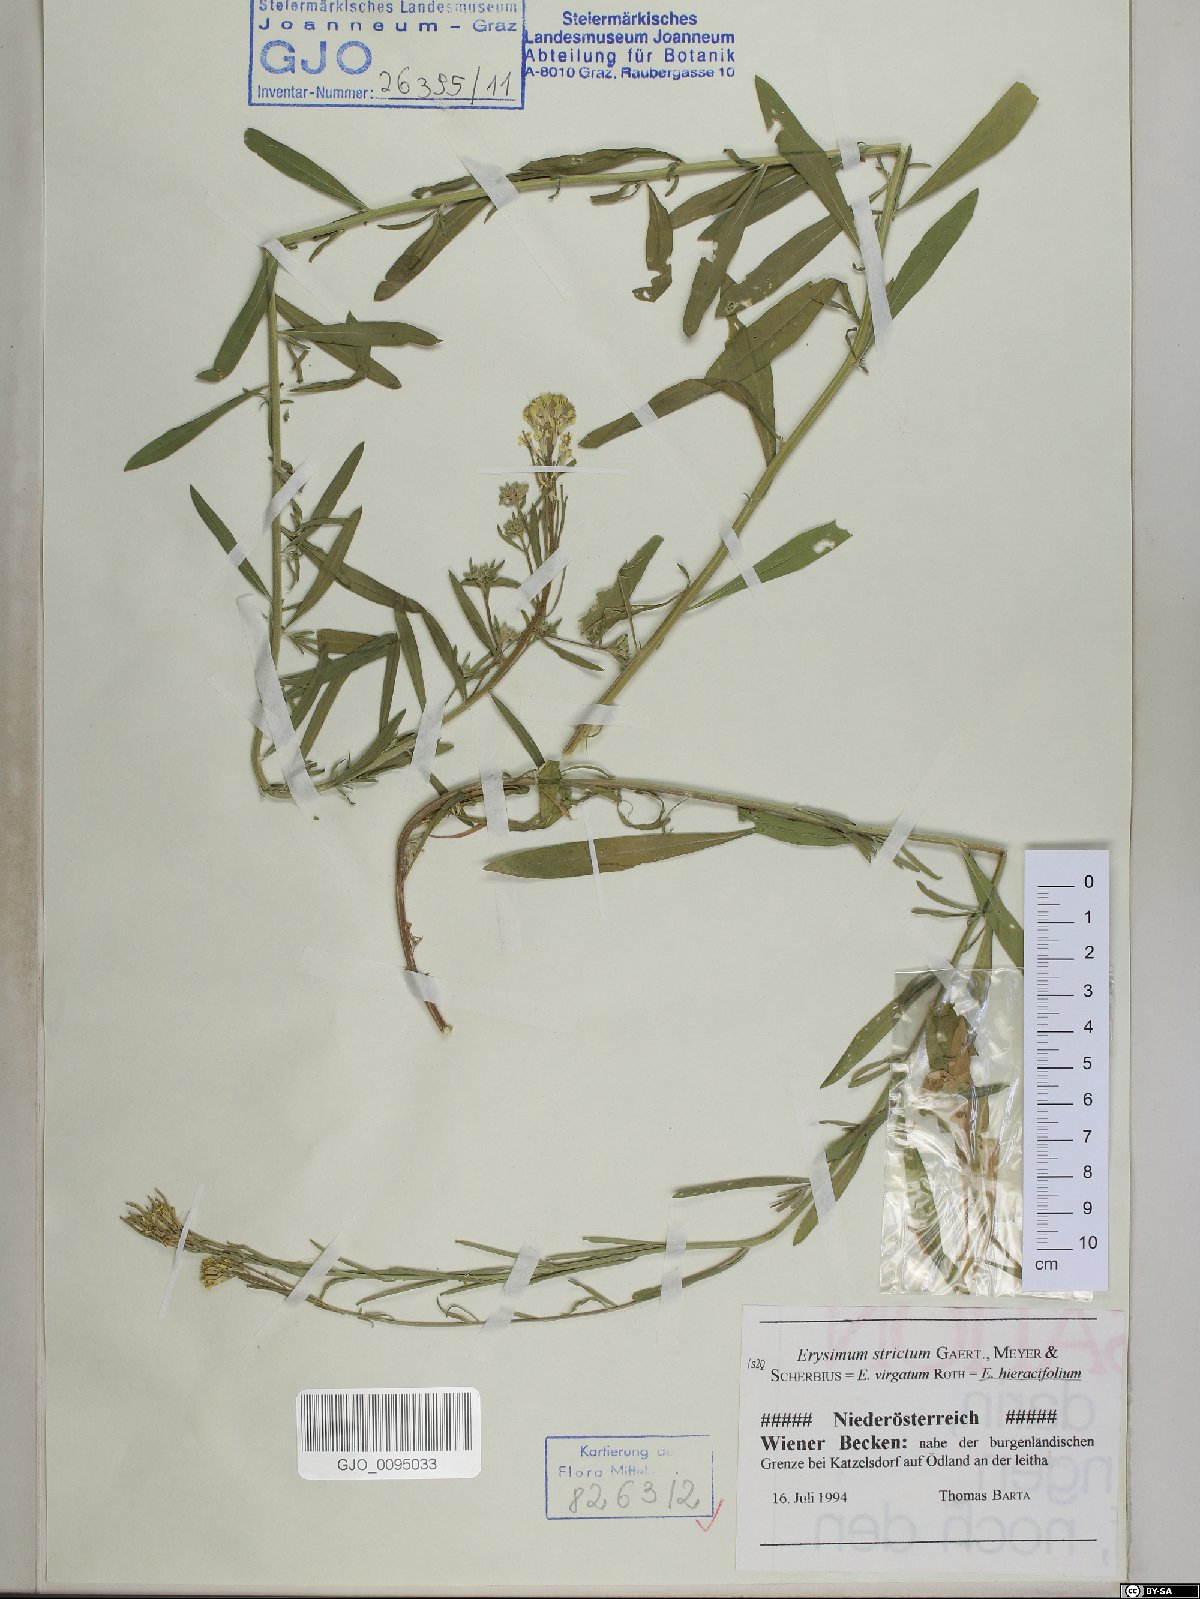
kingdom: Plantae
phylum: Tracheophyta
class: Magnoliopsida
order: Brassicales
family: Brassicaceae
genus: Erysimum
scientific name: Erysimum strictum
